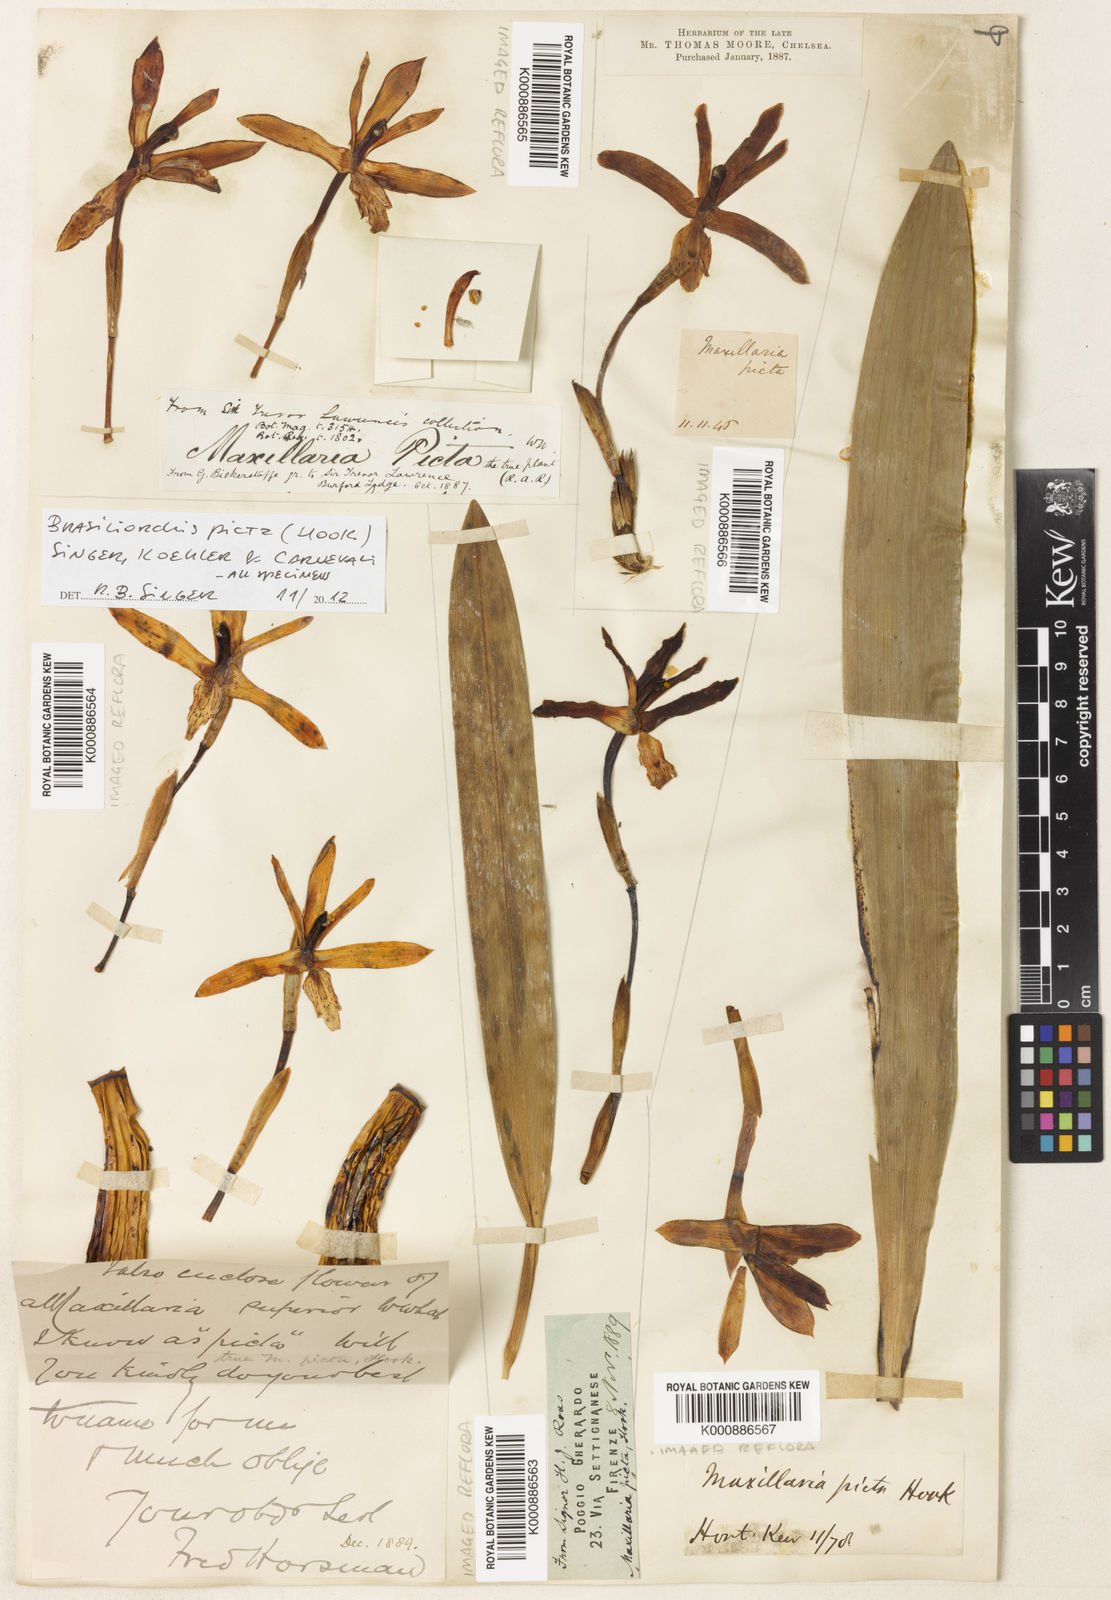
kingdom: Plantae
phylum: Tracheophyta
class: Liliopsida
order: Asparagales
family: Orchidaceae
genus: Maxillaria
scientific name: Maxillaria
